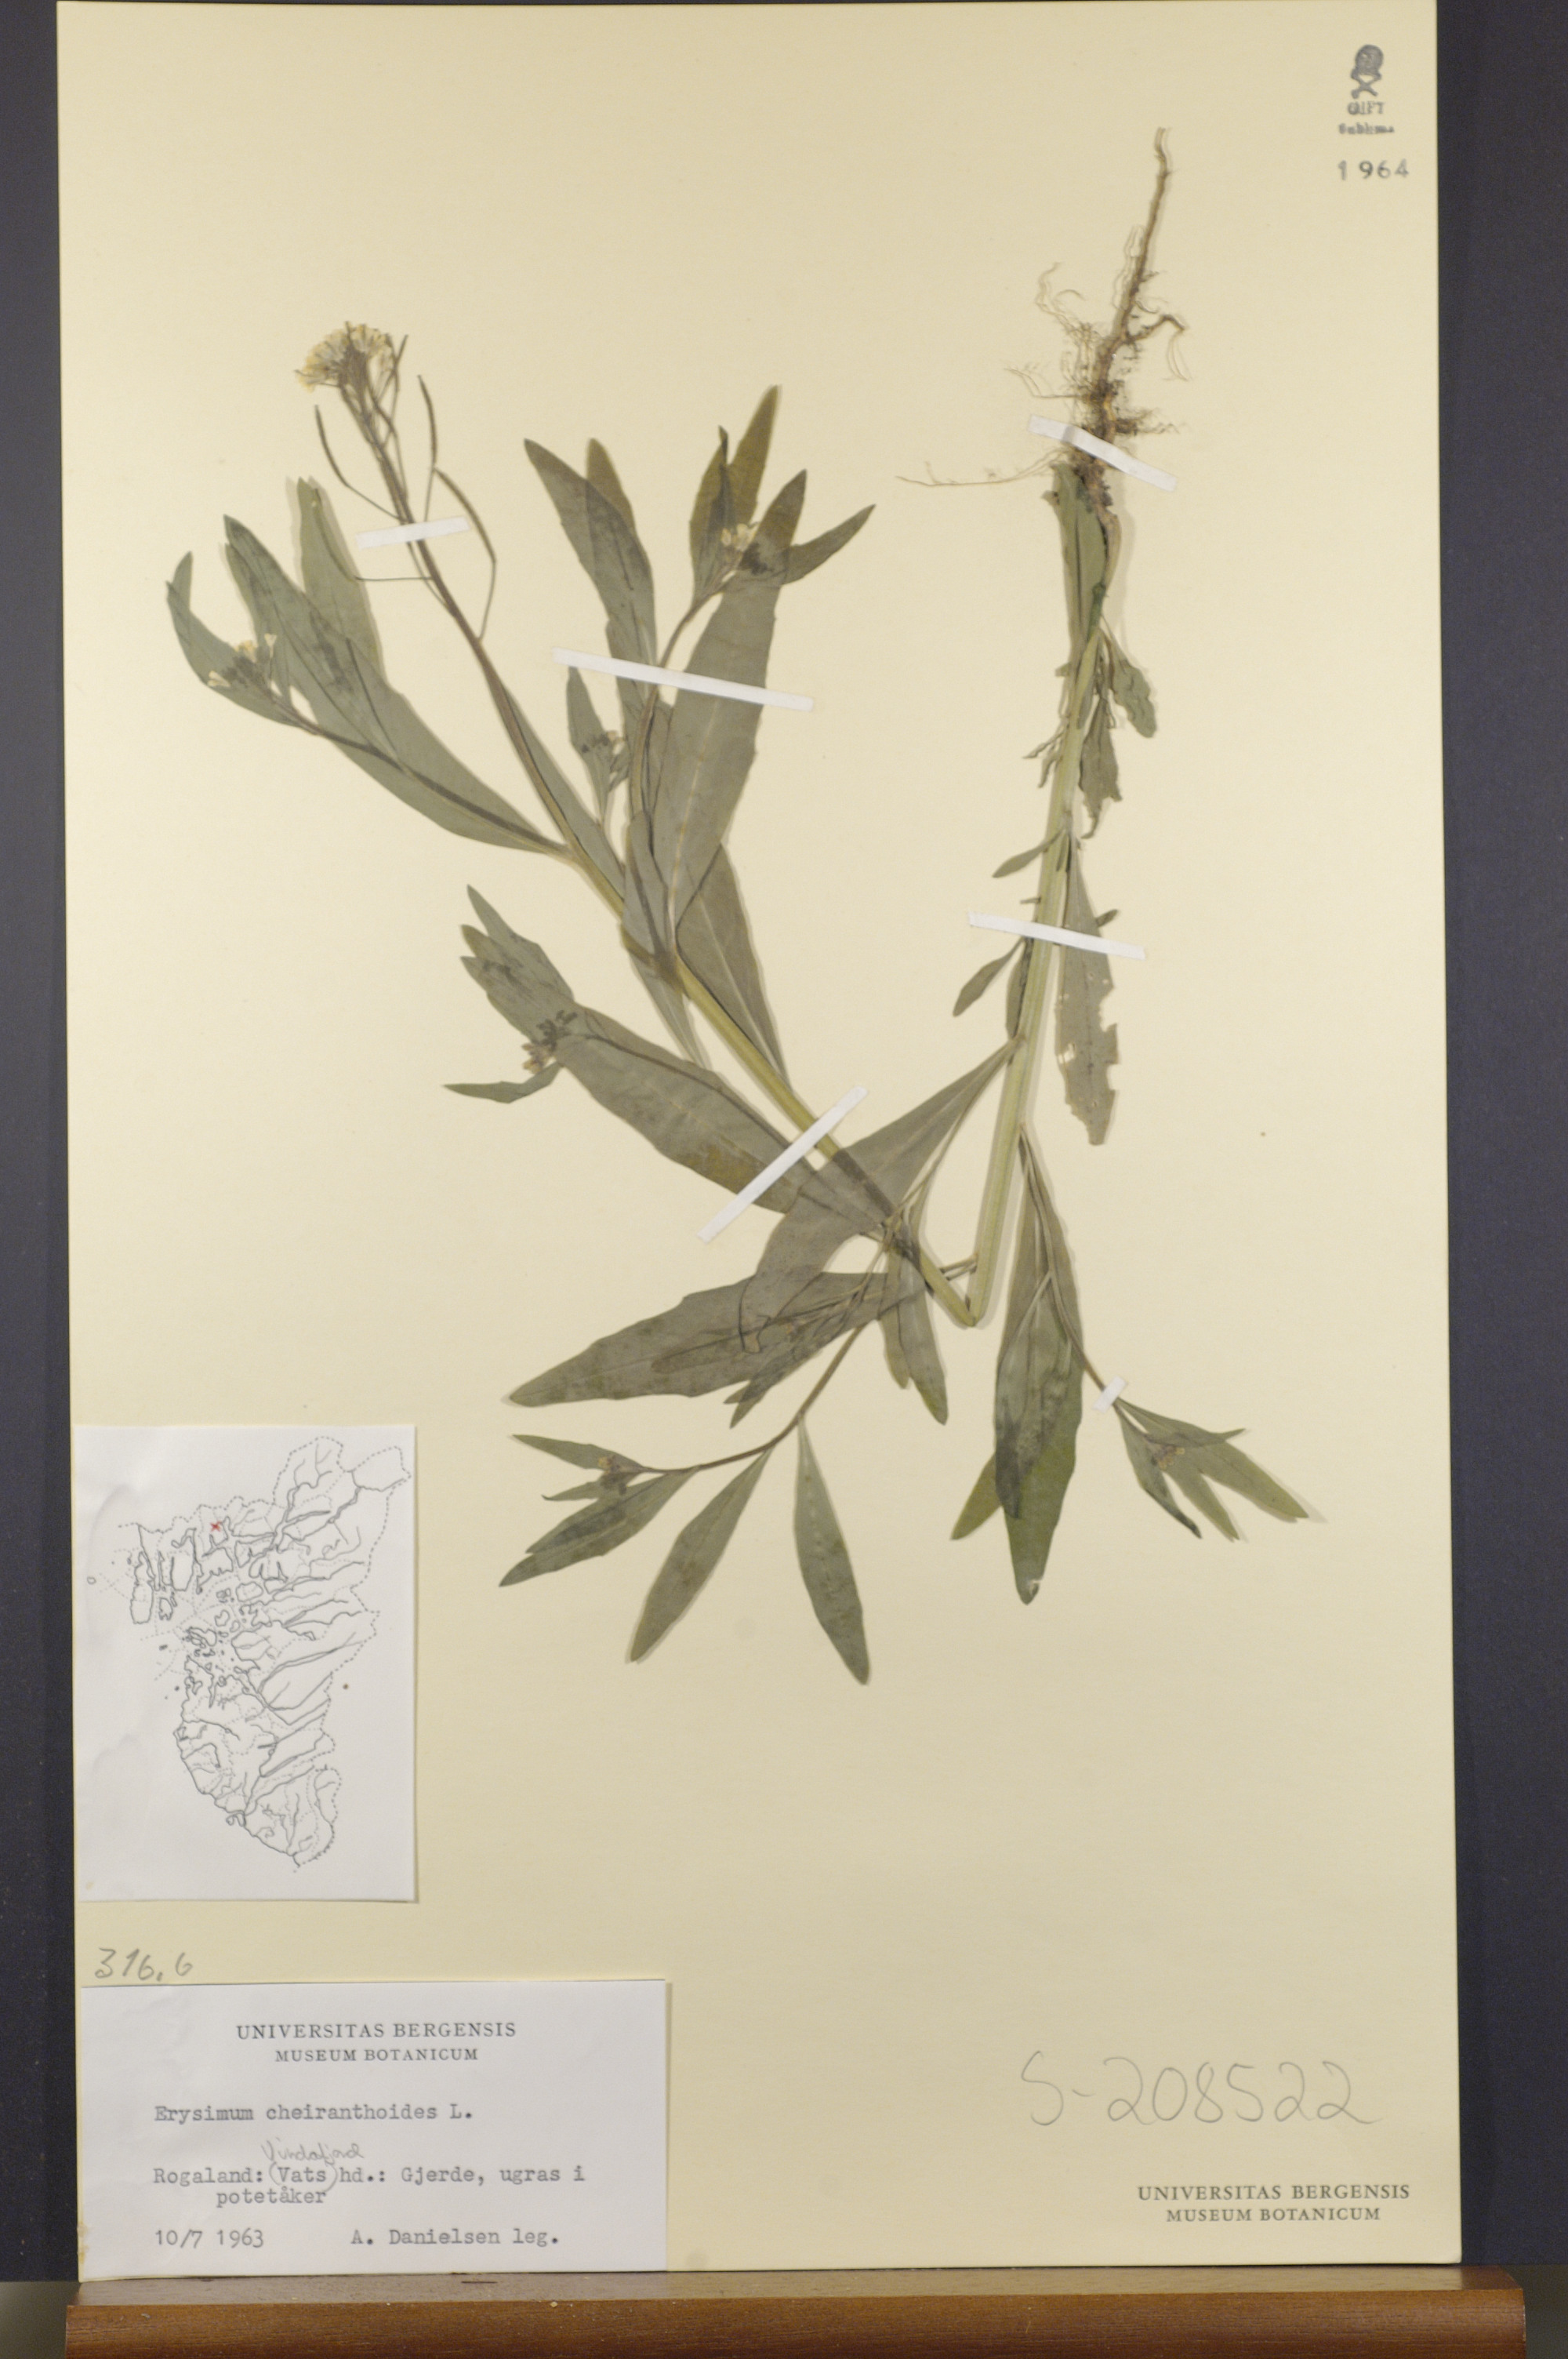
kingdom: Plantae
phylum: Tracheophyta
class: Magnoliopsida
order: Brassicales
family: Brassicaceae
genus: Erysimum
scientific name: Erysimum cheiranthoides
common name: Treacle mustard
